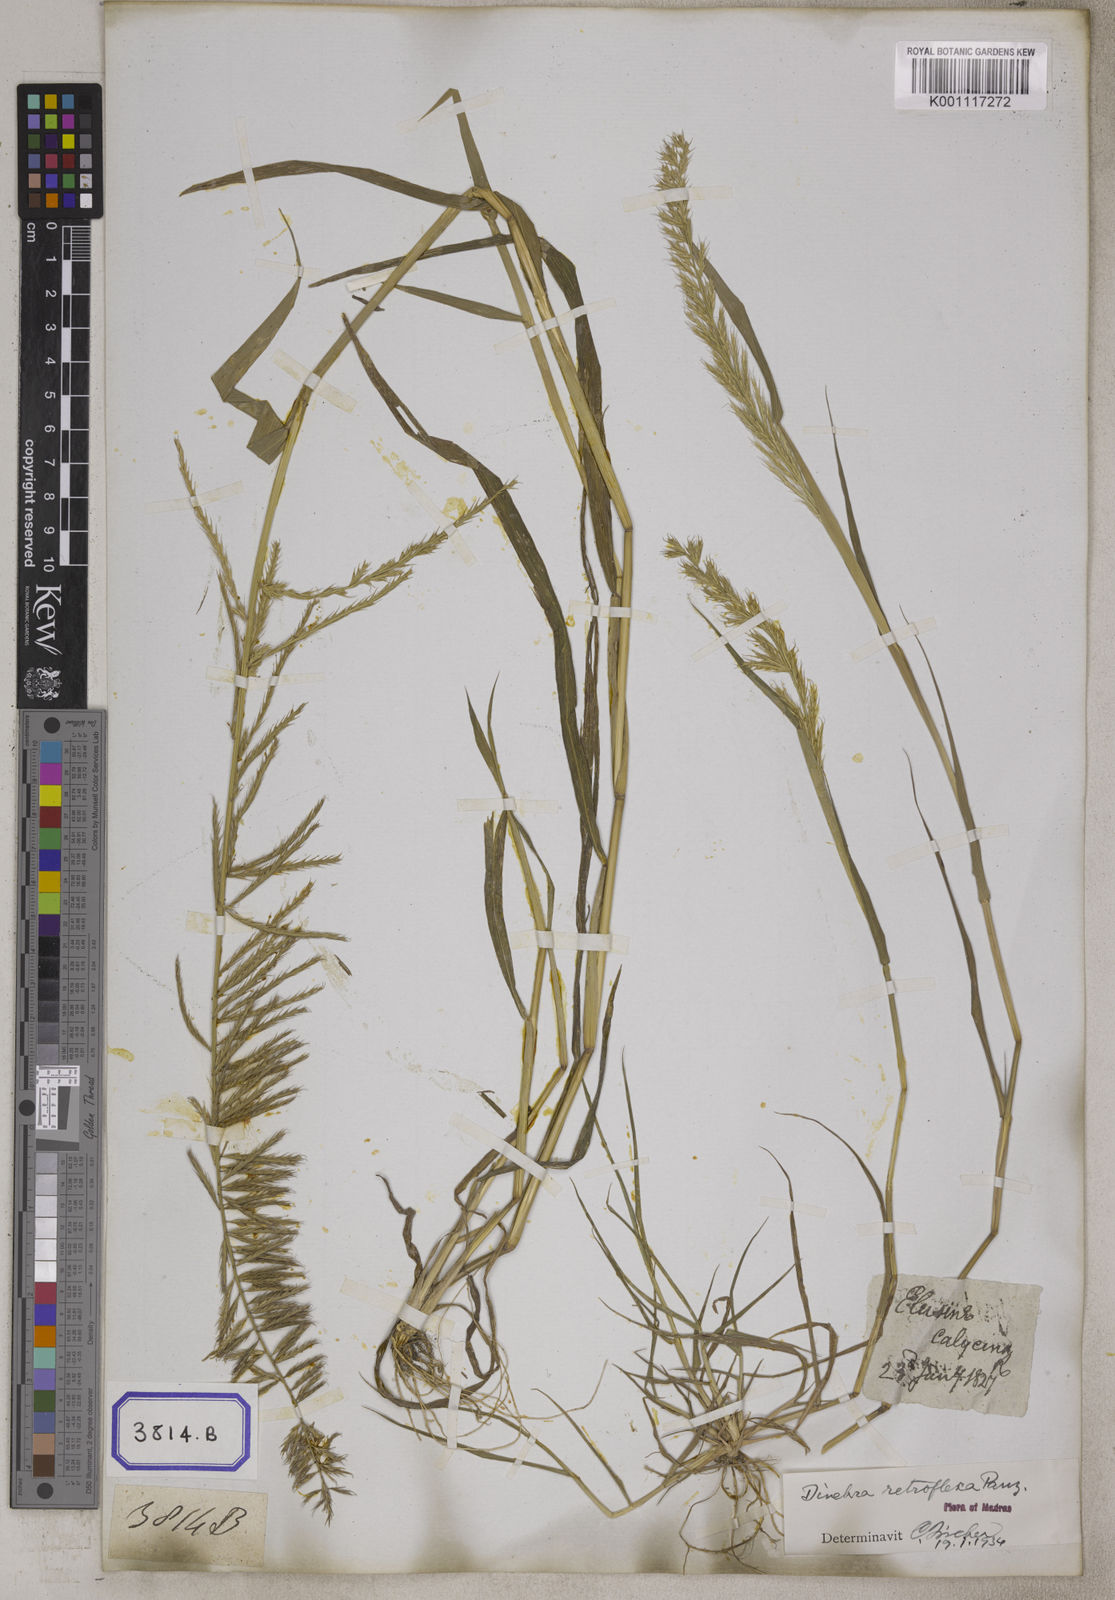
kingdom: Plantae
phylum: Tracheophyta
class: Liliopsida
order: Poales
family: Poaceae
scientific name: Poaceae
